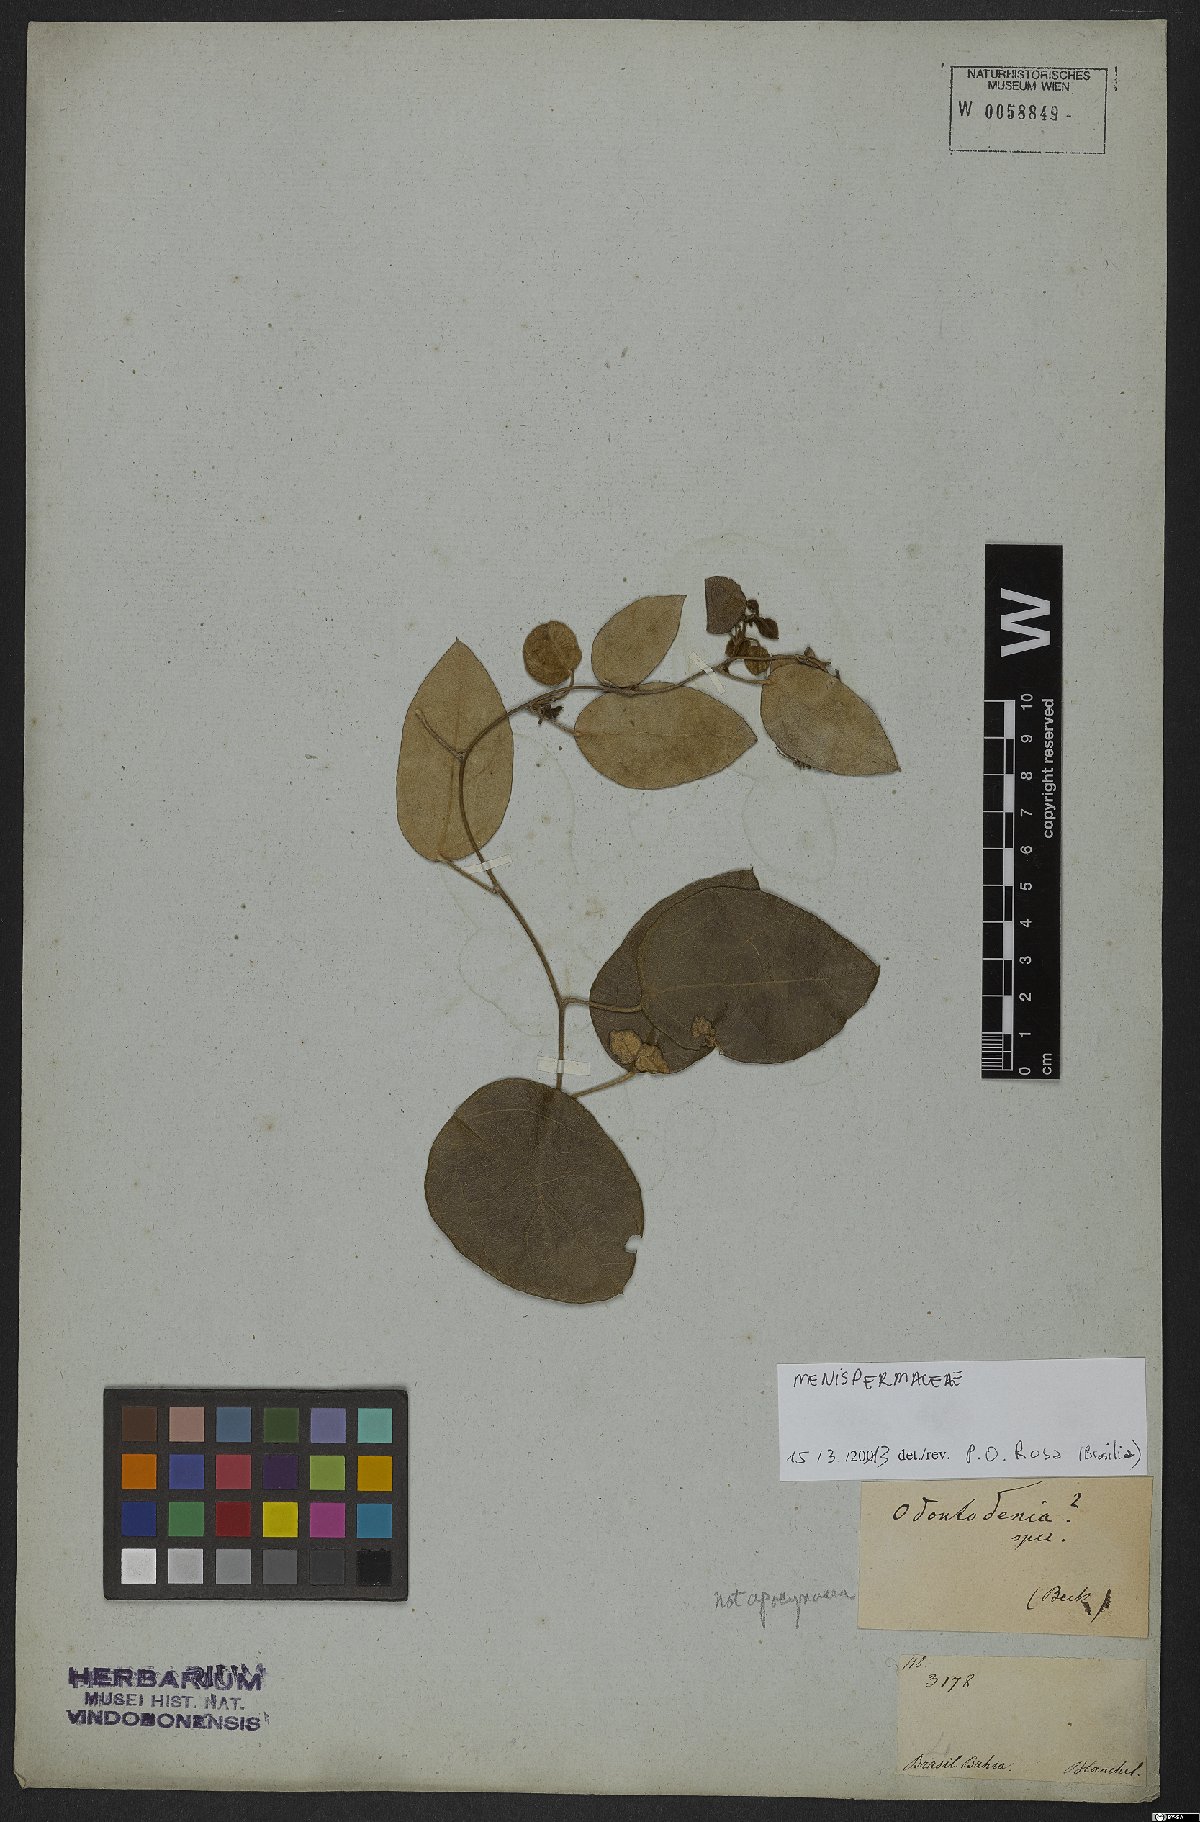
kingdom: Plantae
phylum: Tracheophyta
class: Magnoliopsida
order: Ranunculales
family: Menispermaceae
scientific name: Menispermaceae
